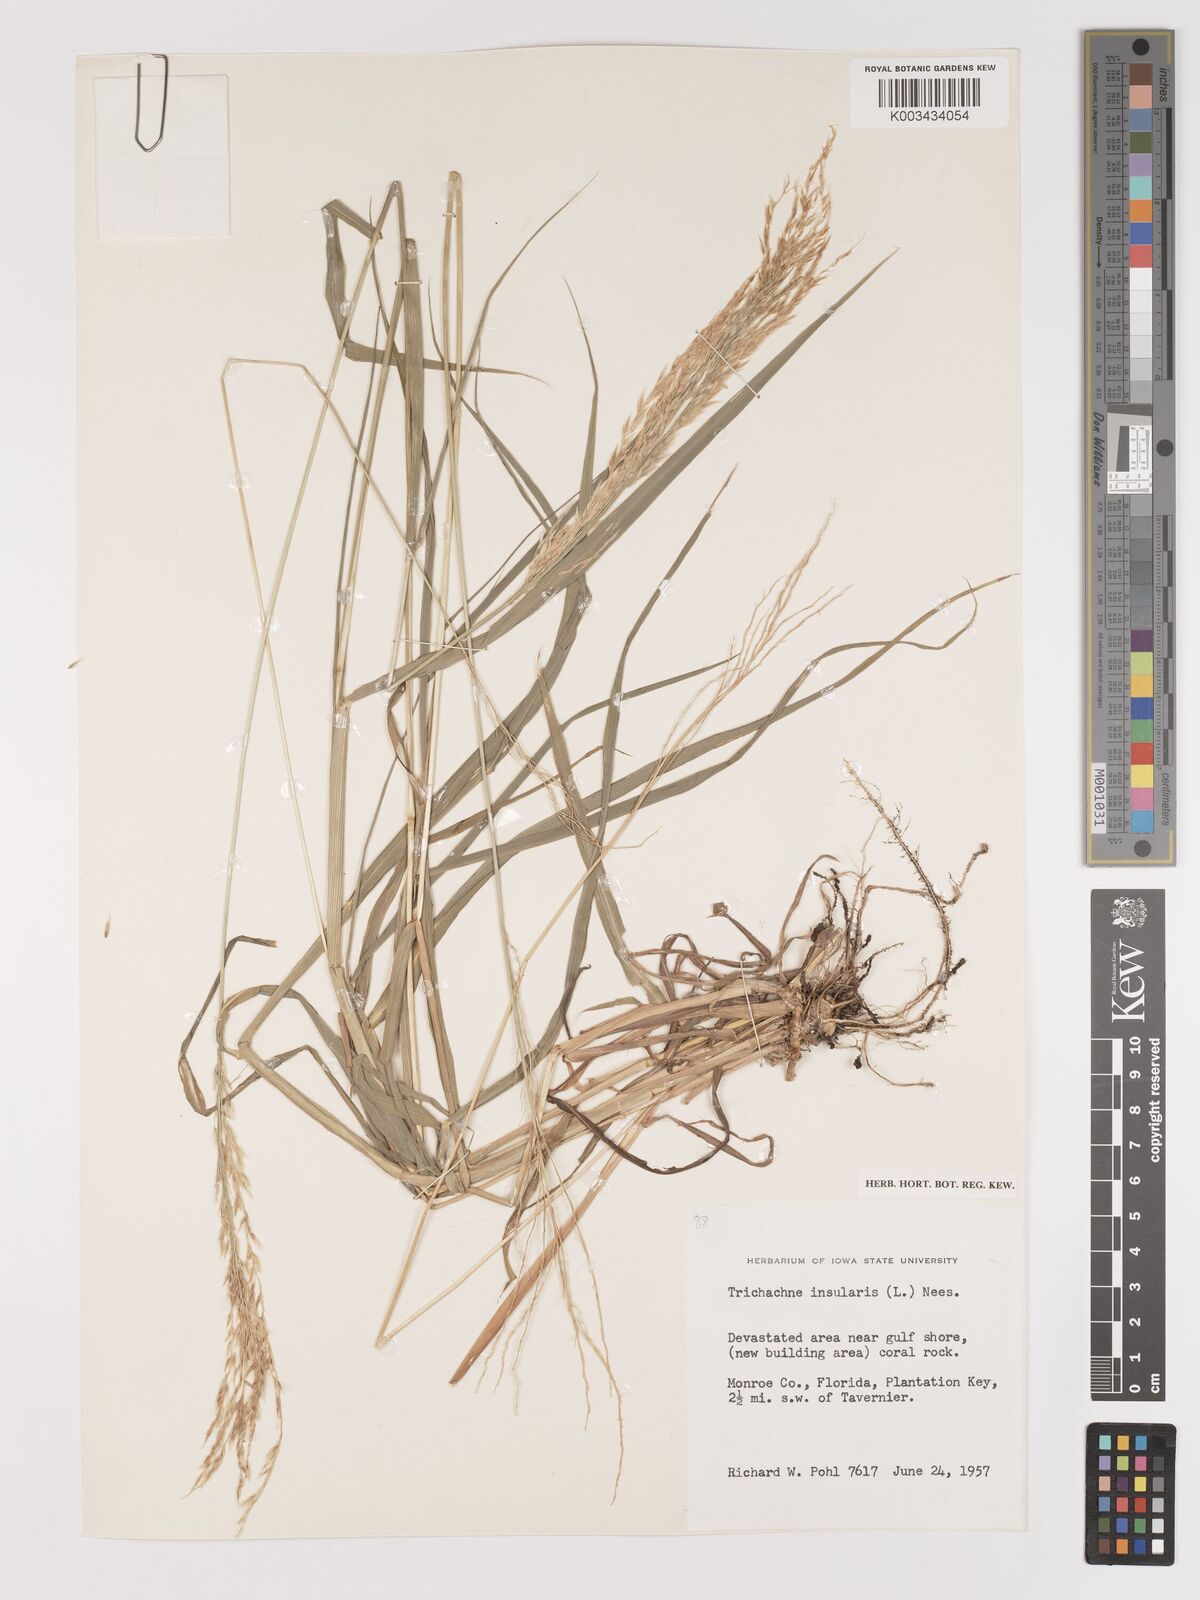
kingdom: Plantae
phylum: Tracheophyta
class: Liliopsida
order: Poales
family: Poaceae
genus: Digitaria
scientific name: Digitaria insularis
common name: Sourgrass
